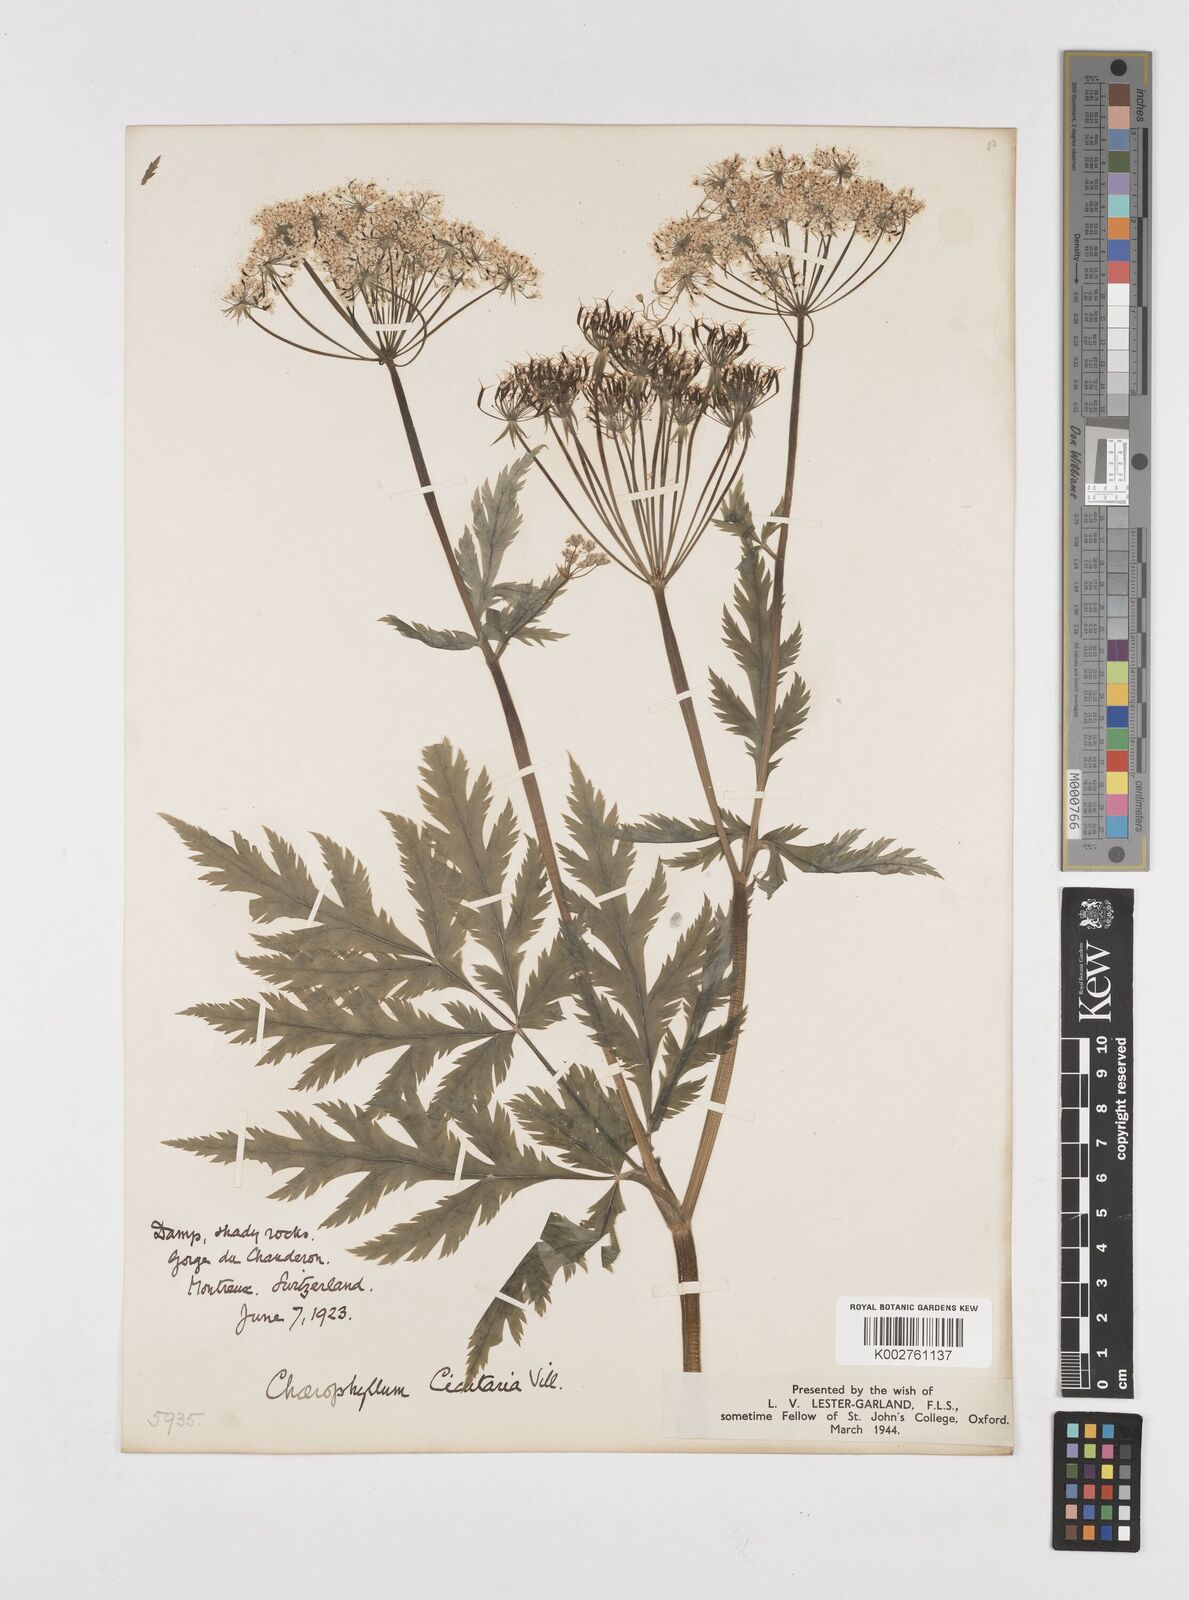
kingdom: Plantae
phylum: Tracheophyta
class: Magnoliopsida
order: Apiales
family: Apiaceae
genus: Chaerophyllum
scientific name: Chaerophyllum hirsutum
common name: Hairy chervil
